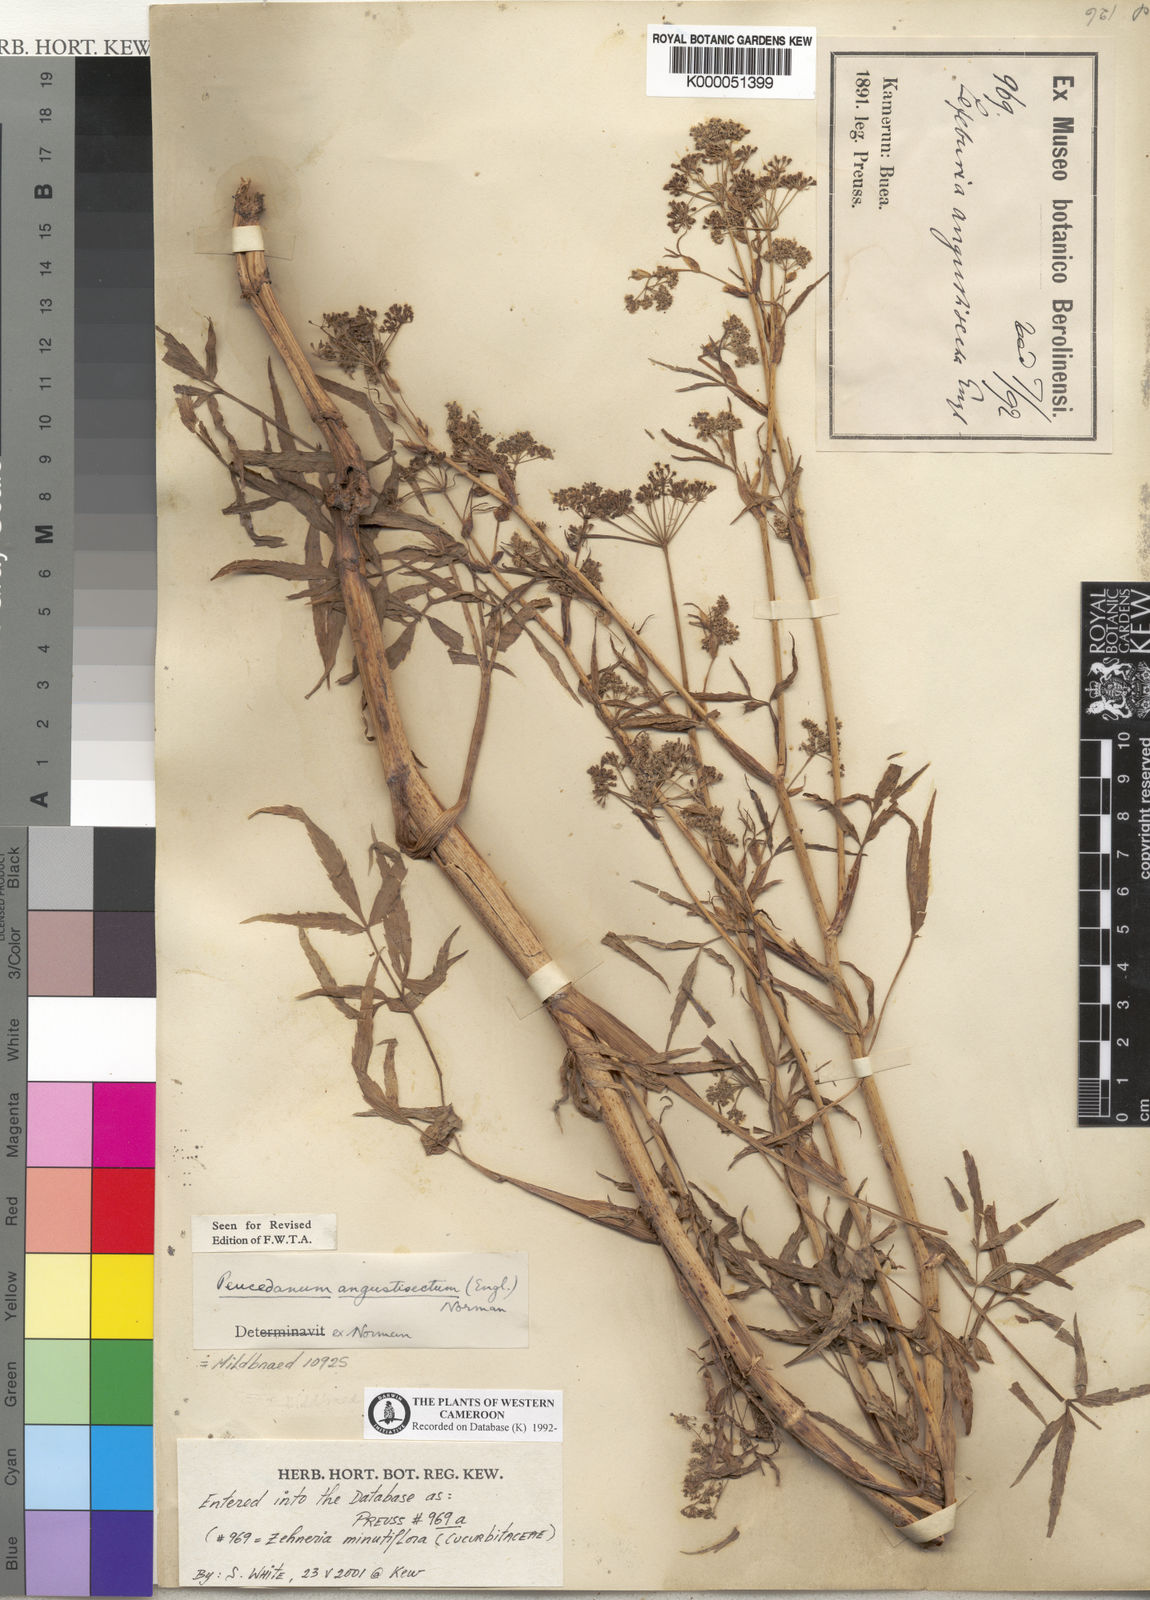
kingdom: Plantae
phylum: Tracheophyta
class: Magnoliopsida
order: Apiales
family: Apiaceae
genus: Lefebvrea
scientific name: Lefebvrea angustisecta
